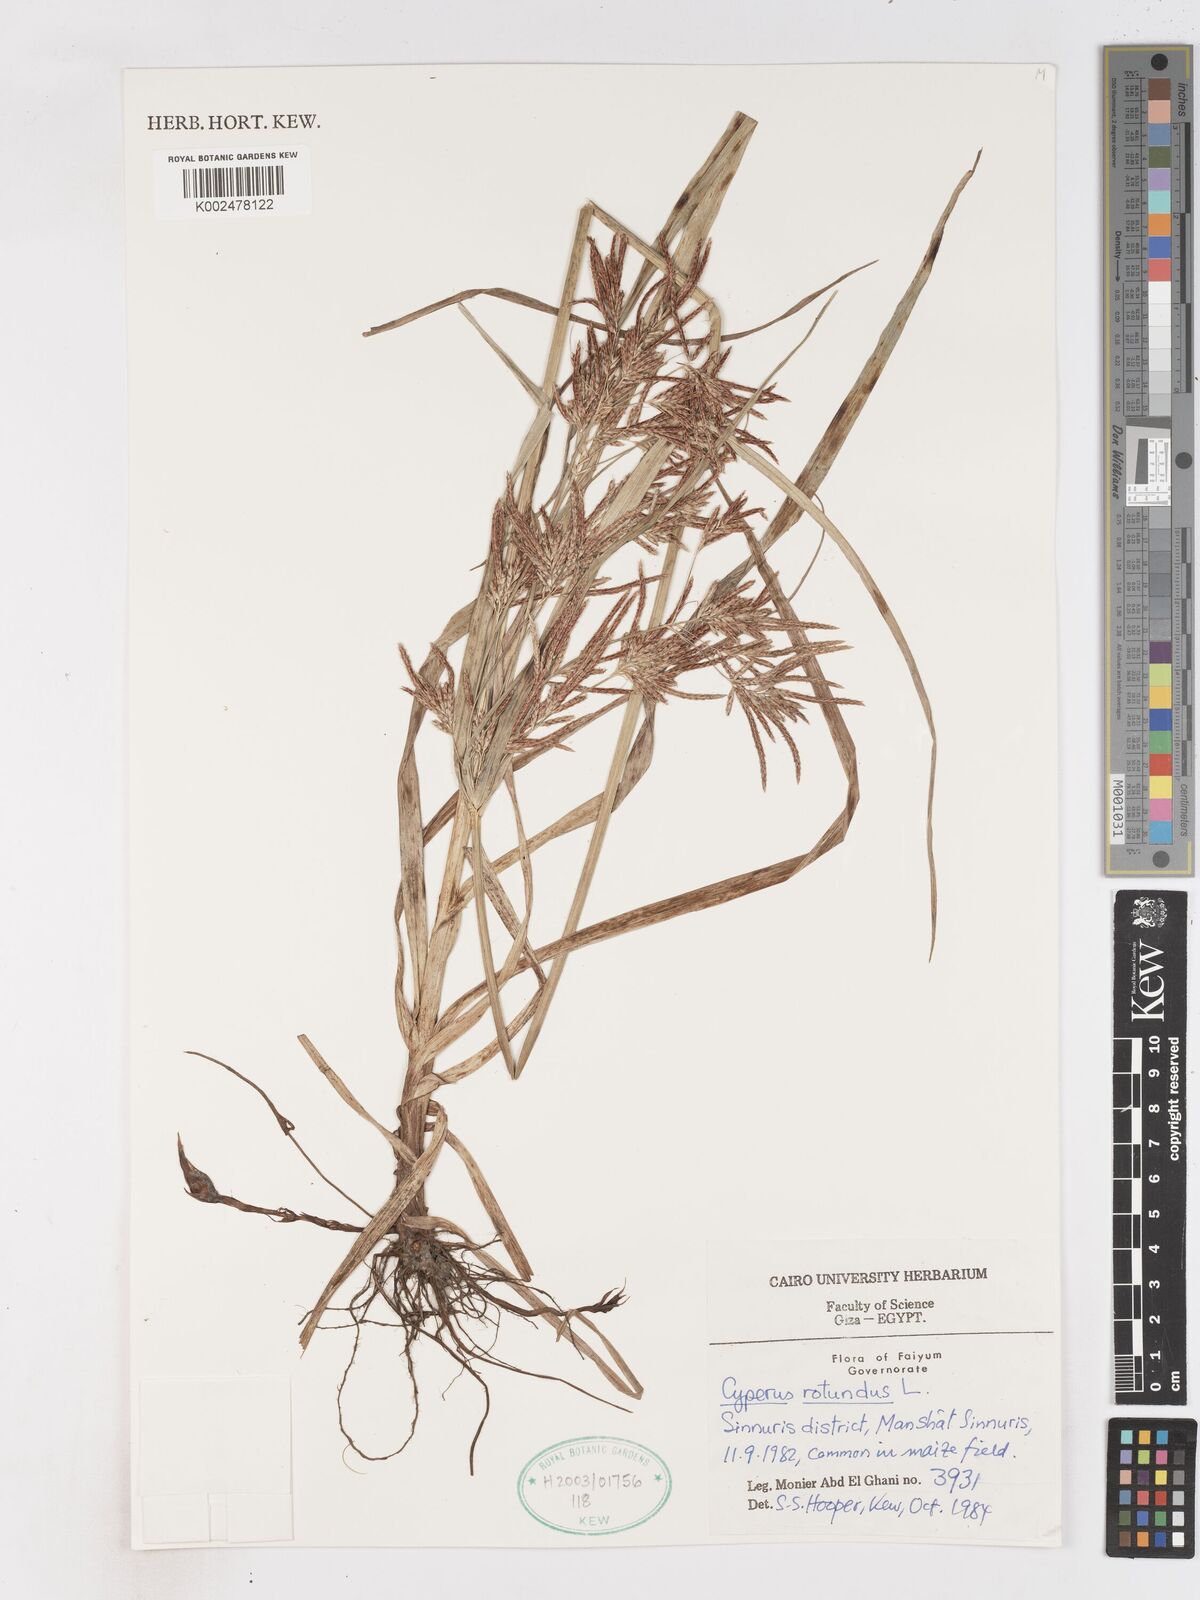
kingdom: Plantae
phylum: Tracheophyta
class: Liliopsida
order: Poales
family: Cyperaceae
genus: Cyperus
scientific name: Cyperus rotundus
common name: Nutgrass
